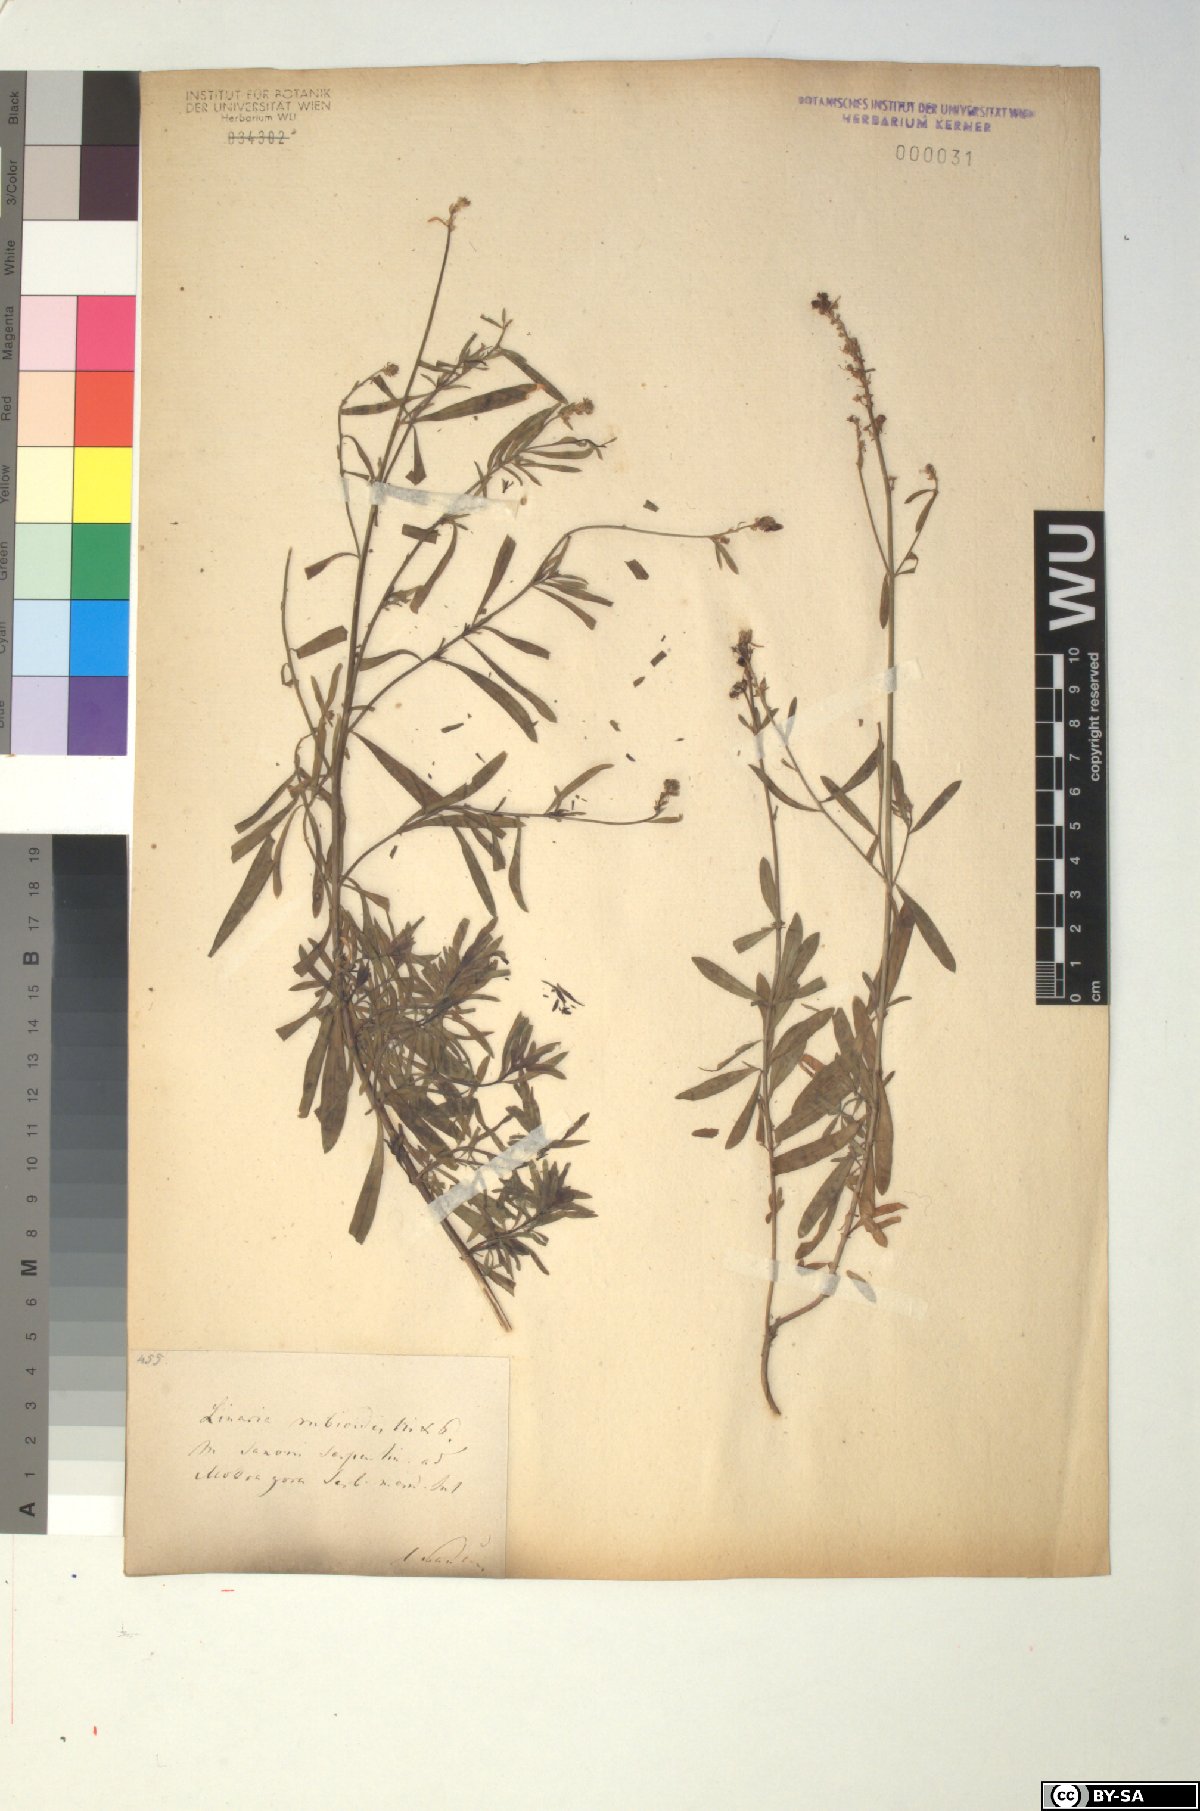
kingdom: Plantae
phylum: Tracheophyta
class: Magnoliopsida
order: Lamiales
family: Plantaginaceae
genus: Linaria
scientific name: Linaria rubioides
